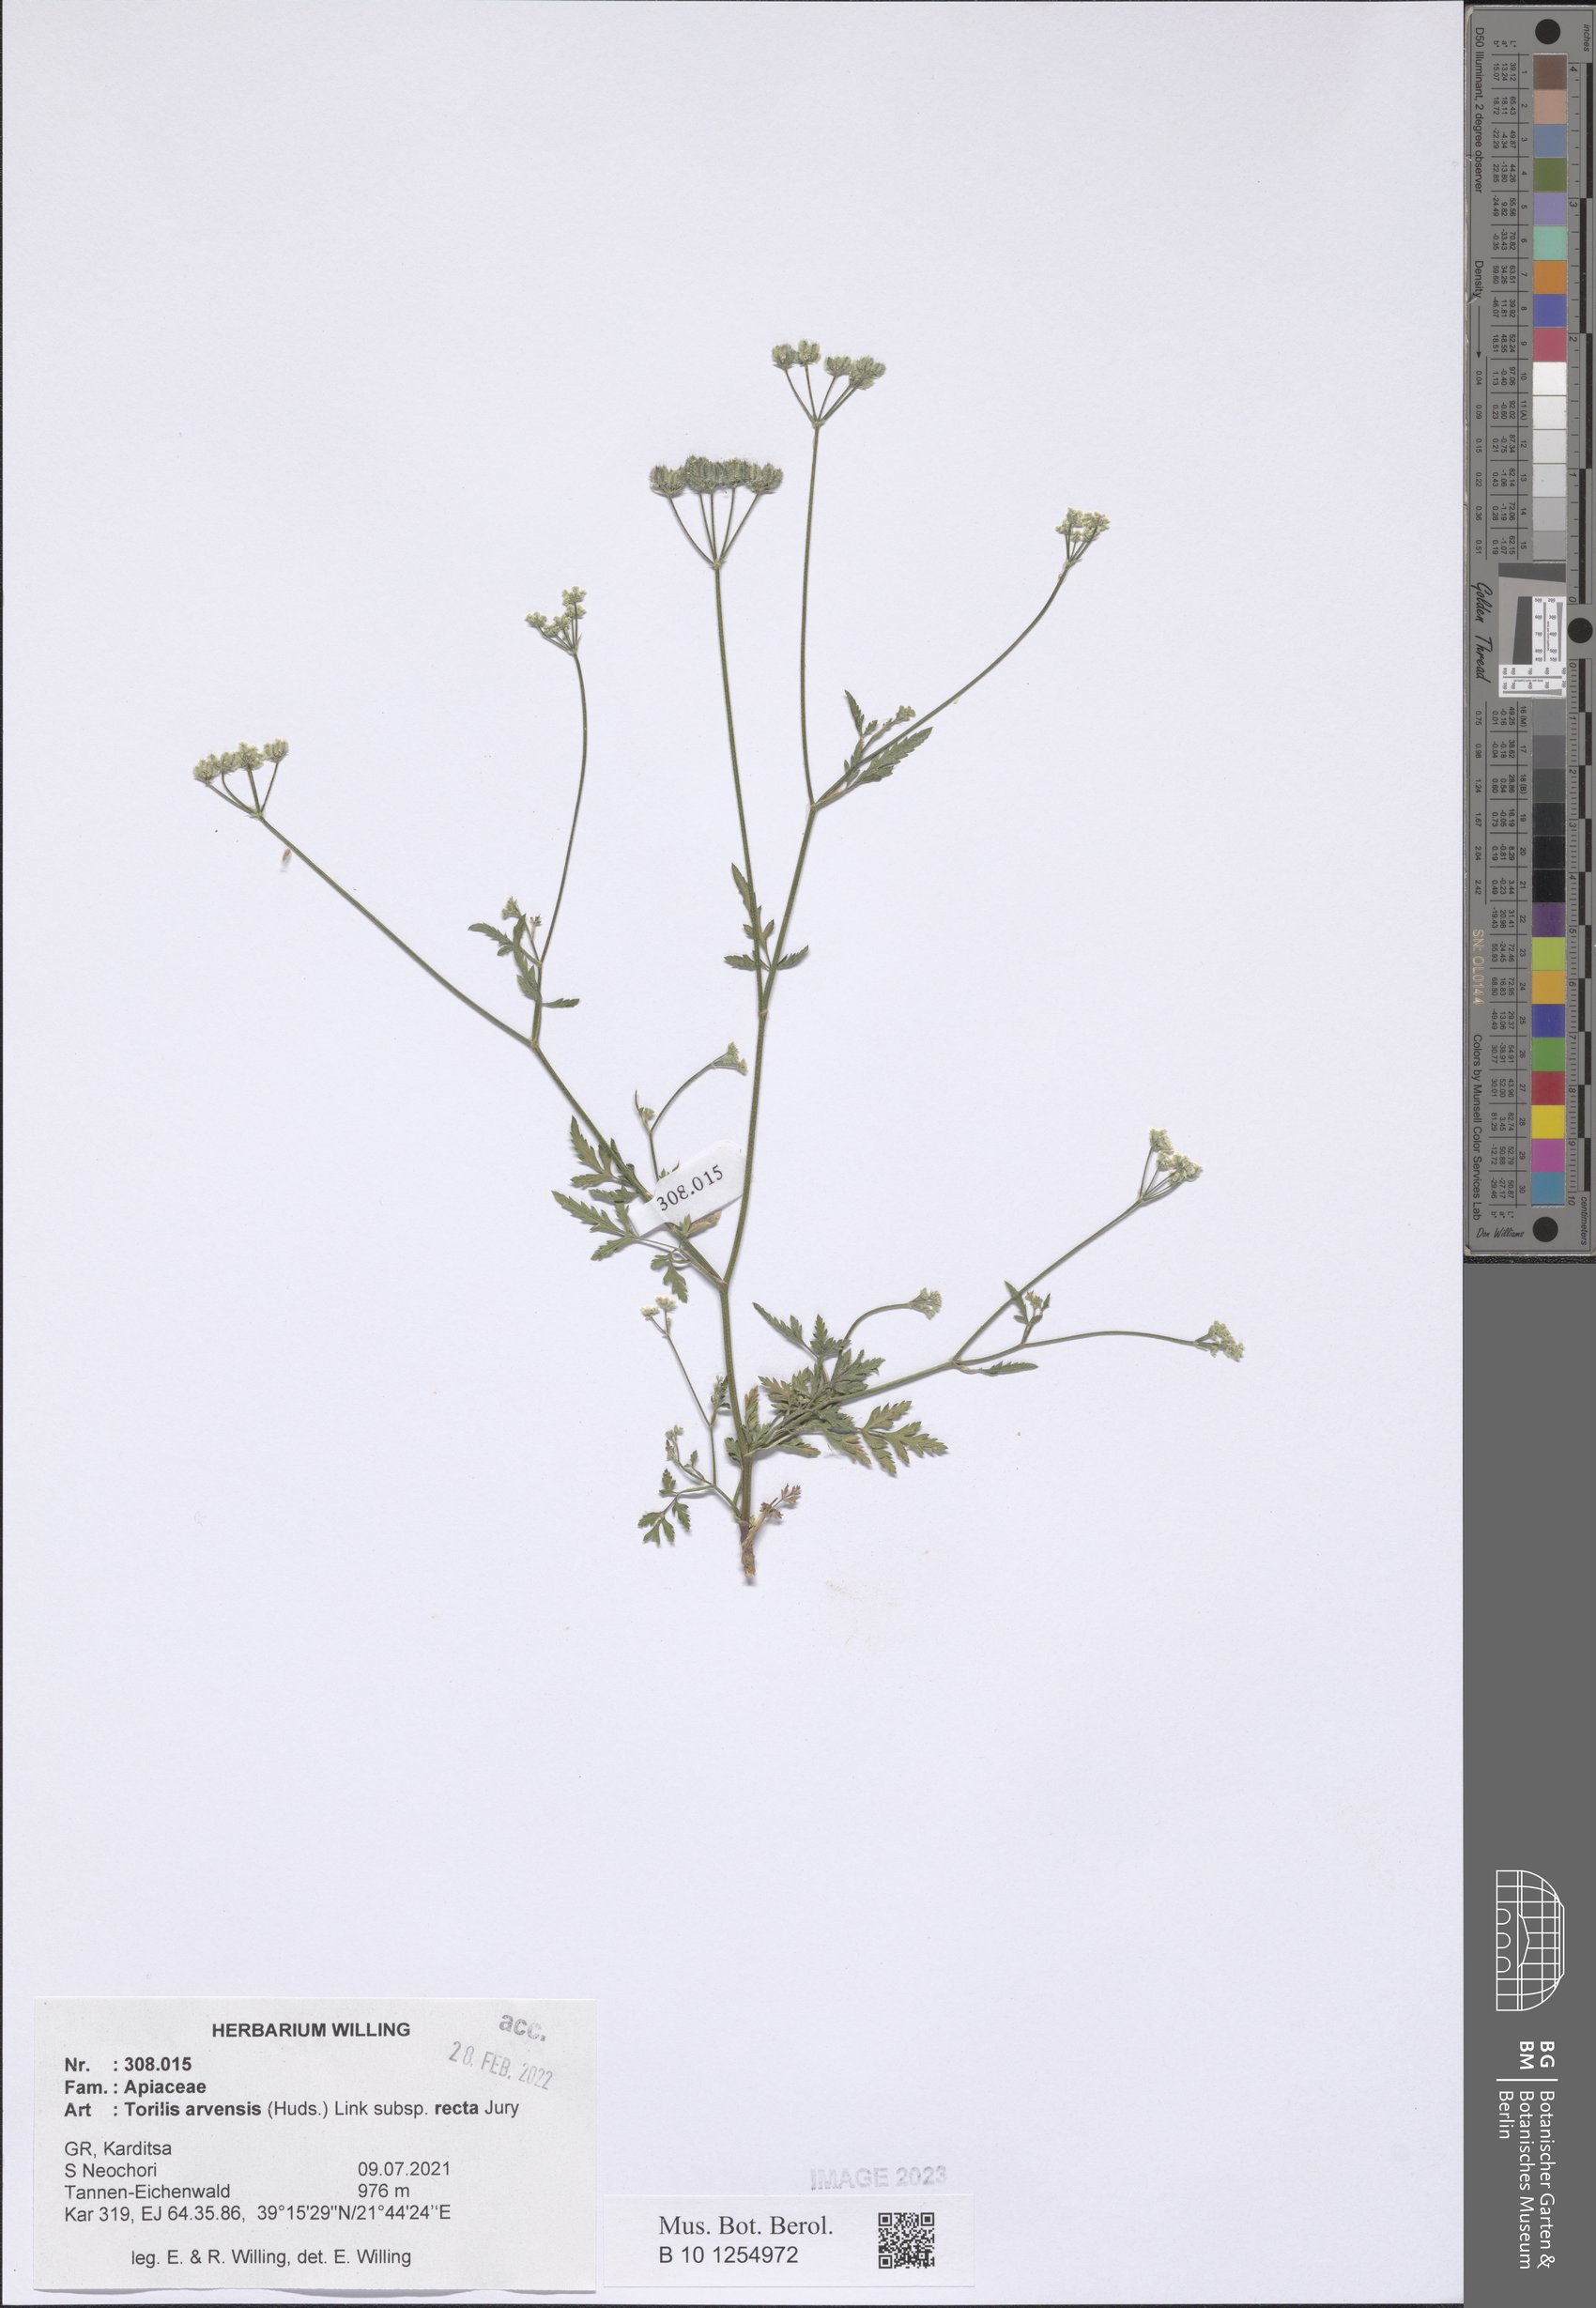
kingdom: Plantae
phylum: Tracheophyta
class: Magnoliopsida
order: Apiales
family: Apiaceae
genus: Torilis
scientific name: Torilis arvensis
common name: Spreading hedge-parsley
